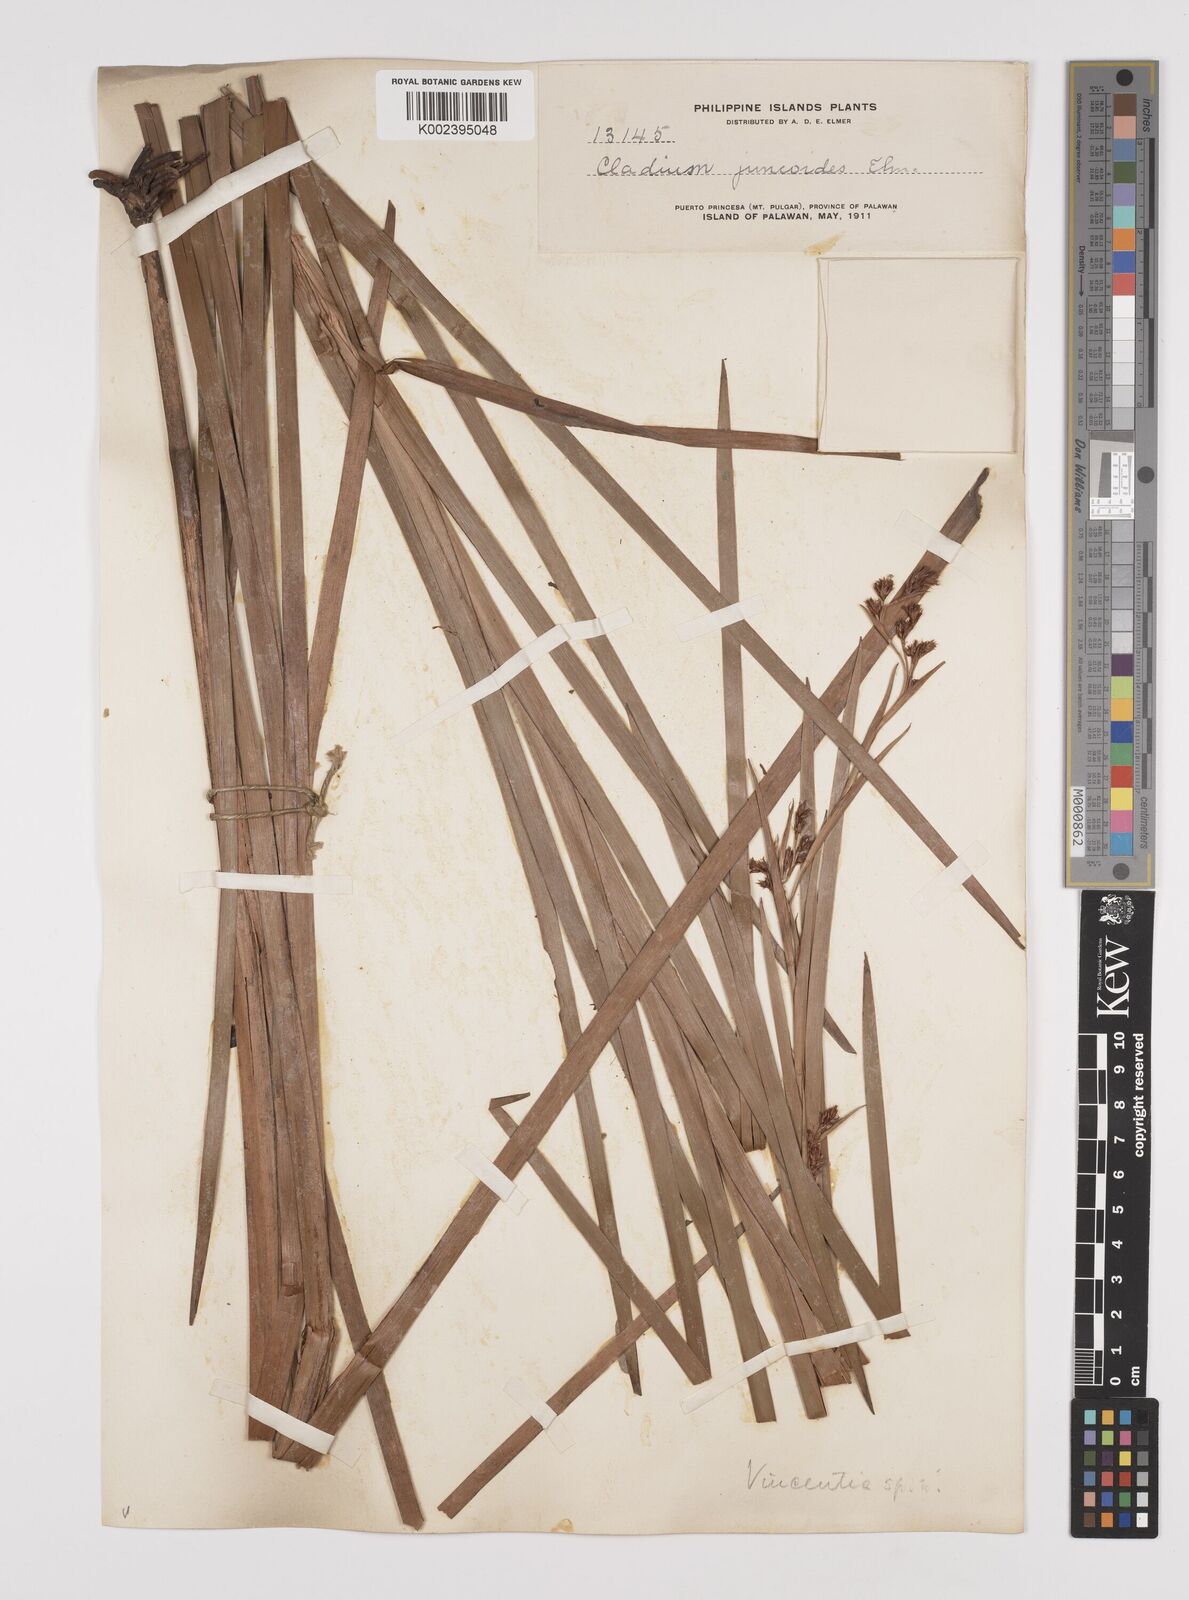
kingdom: Plantae
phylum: Tracheophyta
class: Liliopsida
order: Poales
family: Cyperaceae
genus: Machaerina
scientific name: Machaerina glomerata
